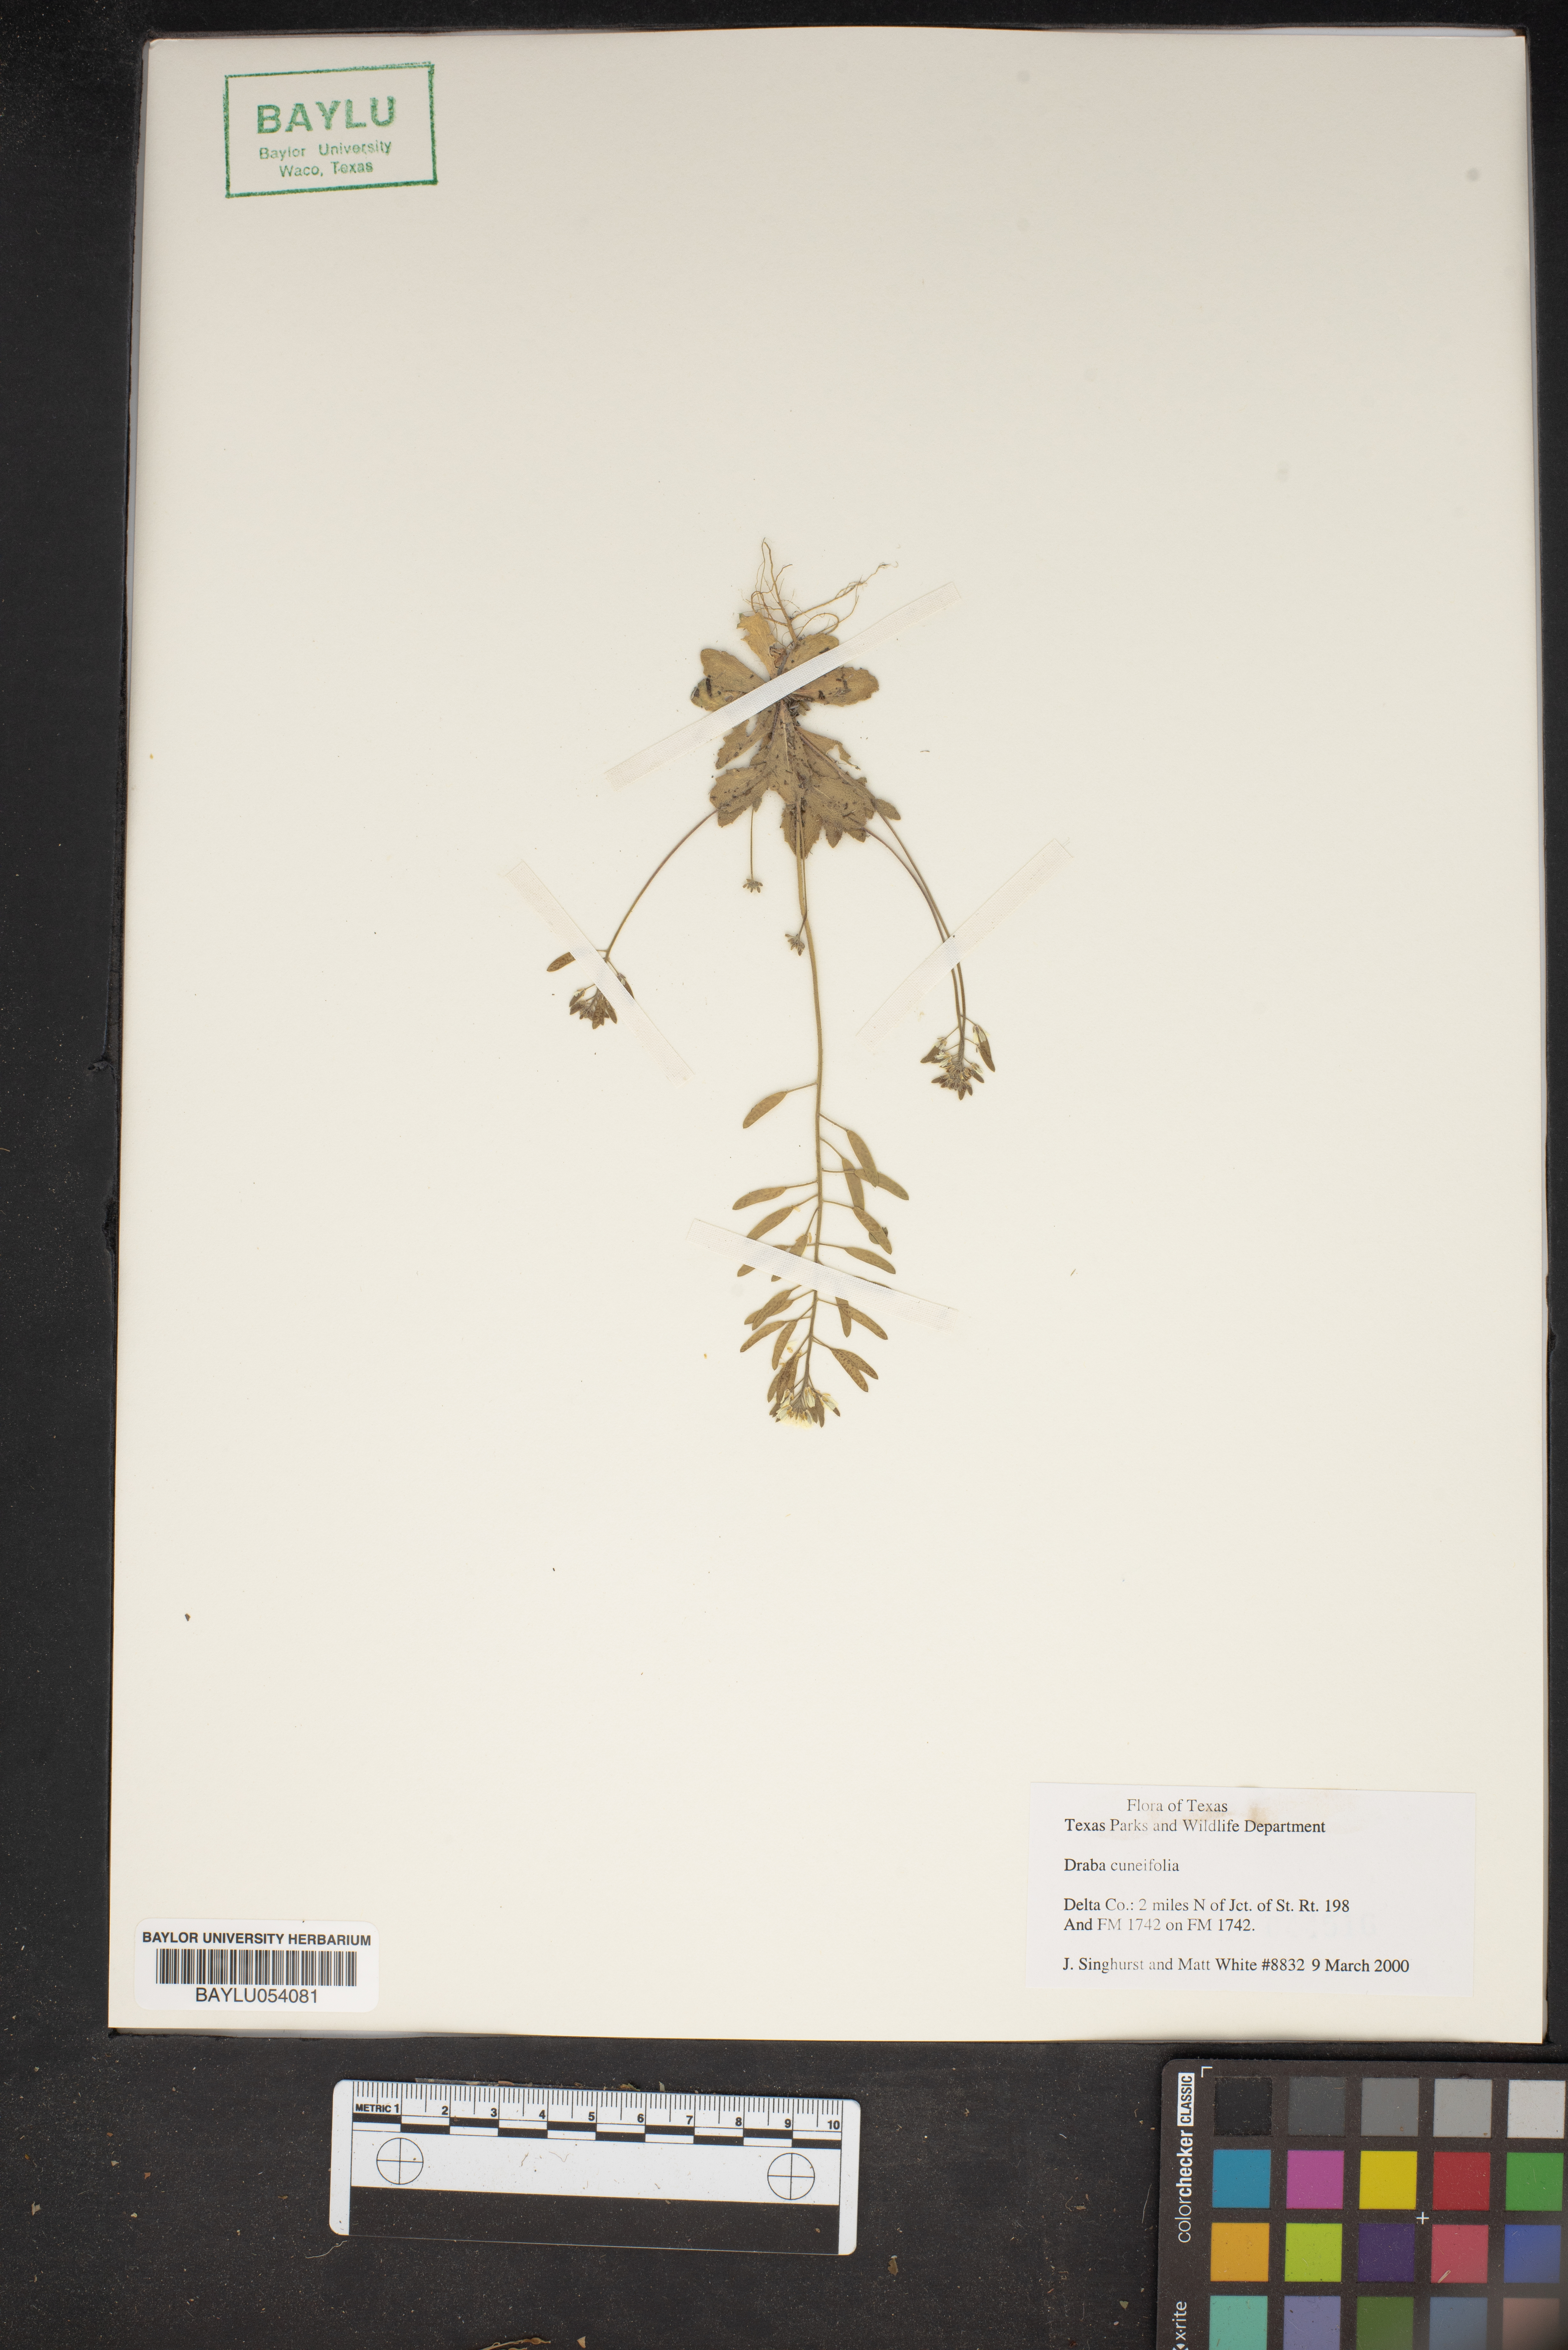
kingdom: Plantae
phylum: Tracheophyta
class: Magnoliopsida
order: Brassicales
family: Brassicaceae
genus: Tomostima
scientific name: Tomostima cuneifolia
